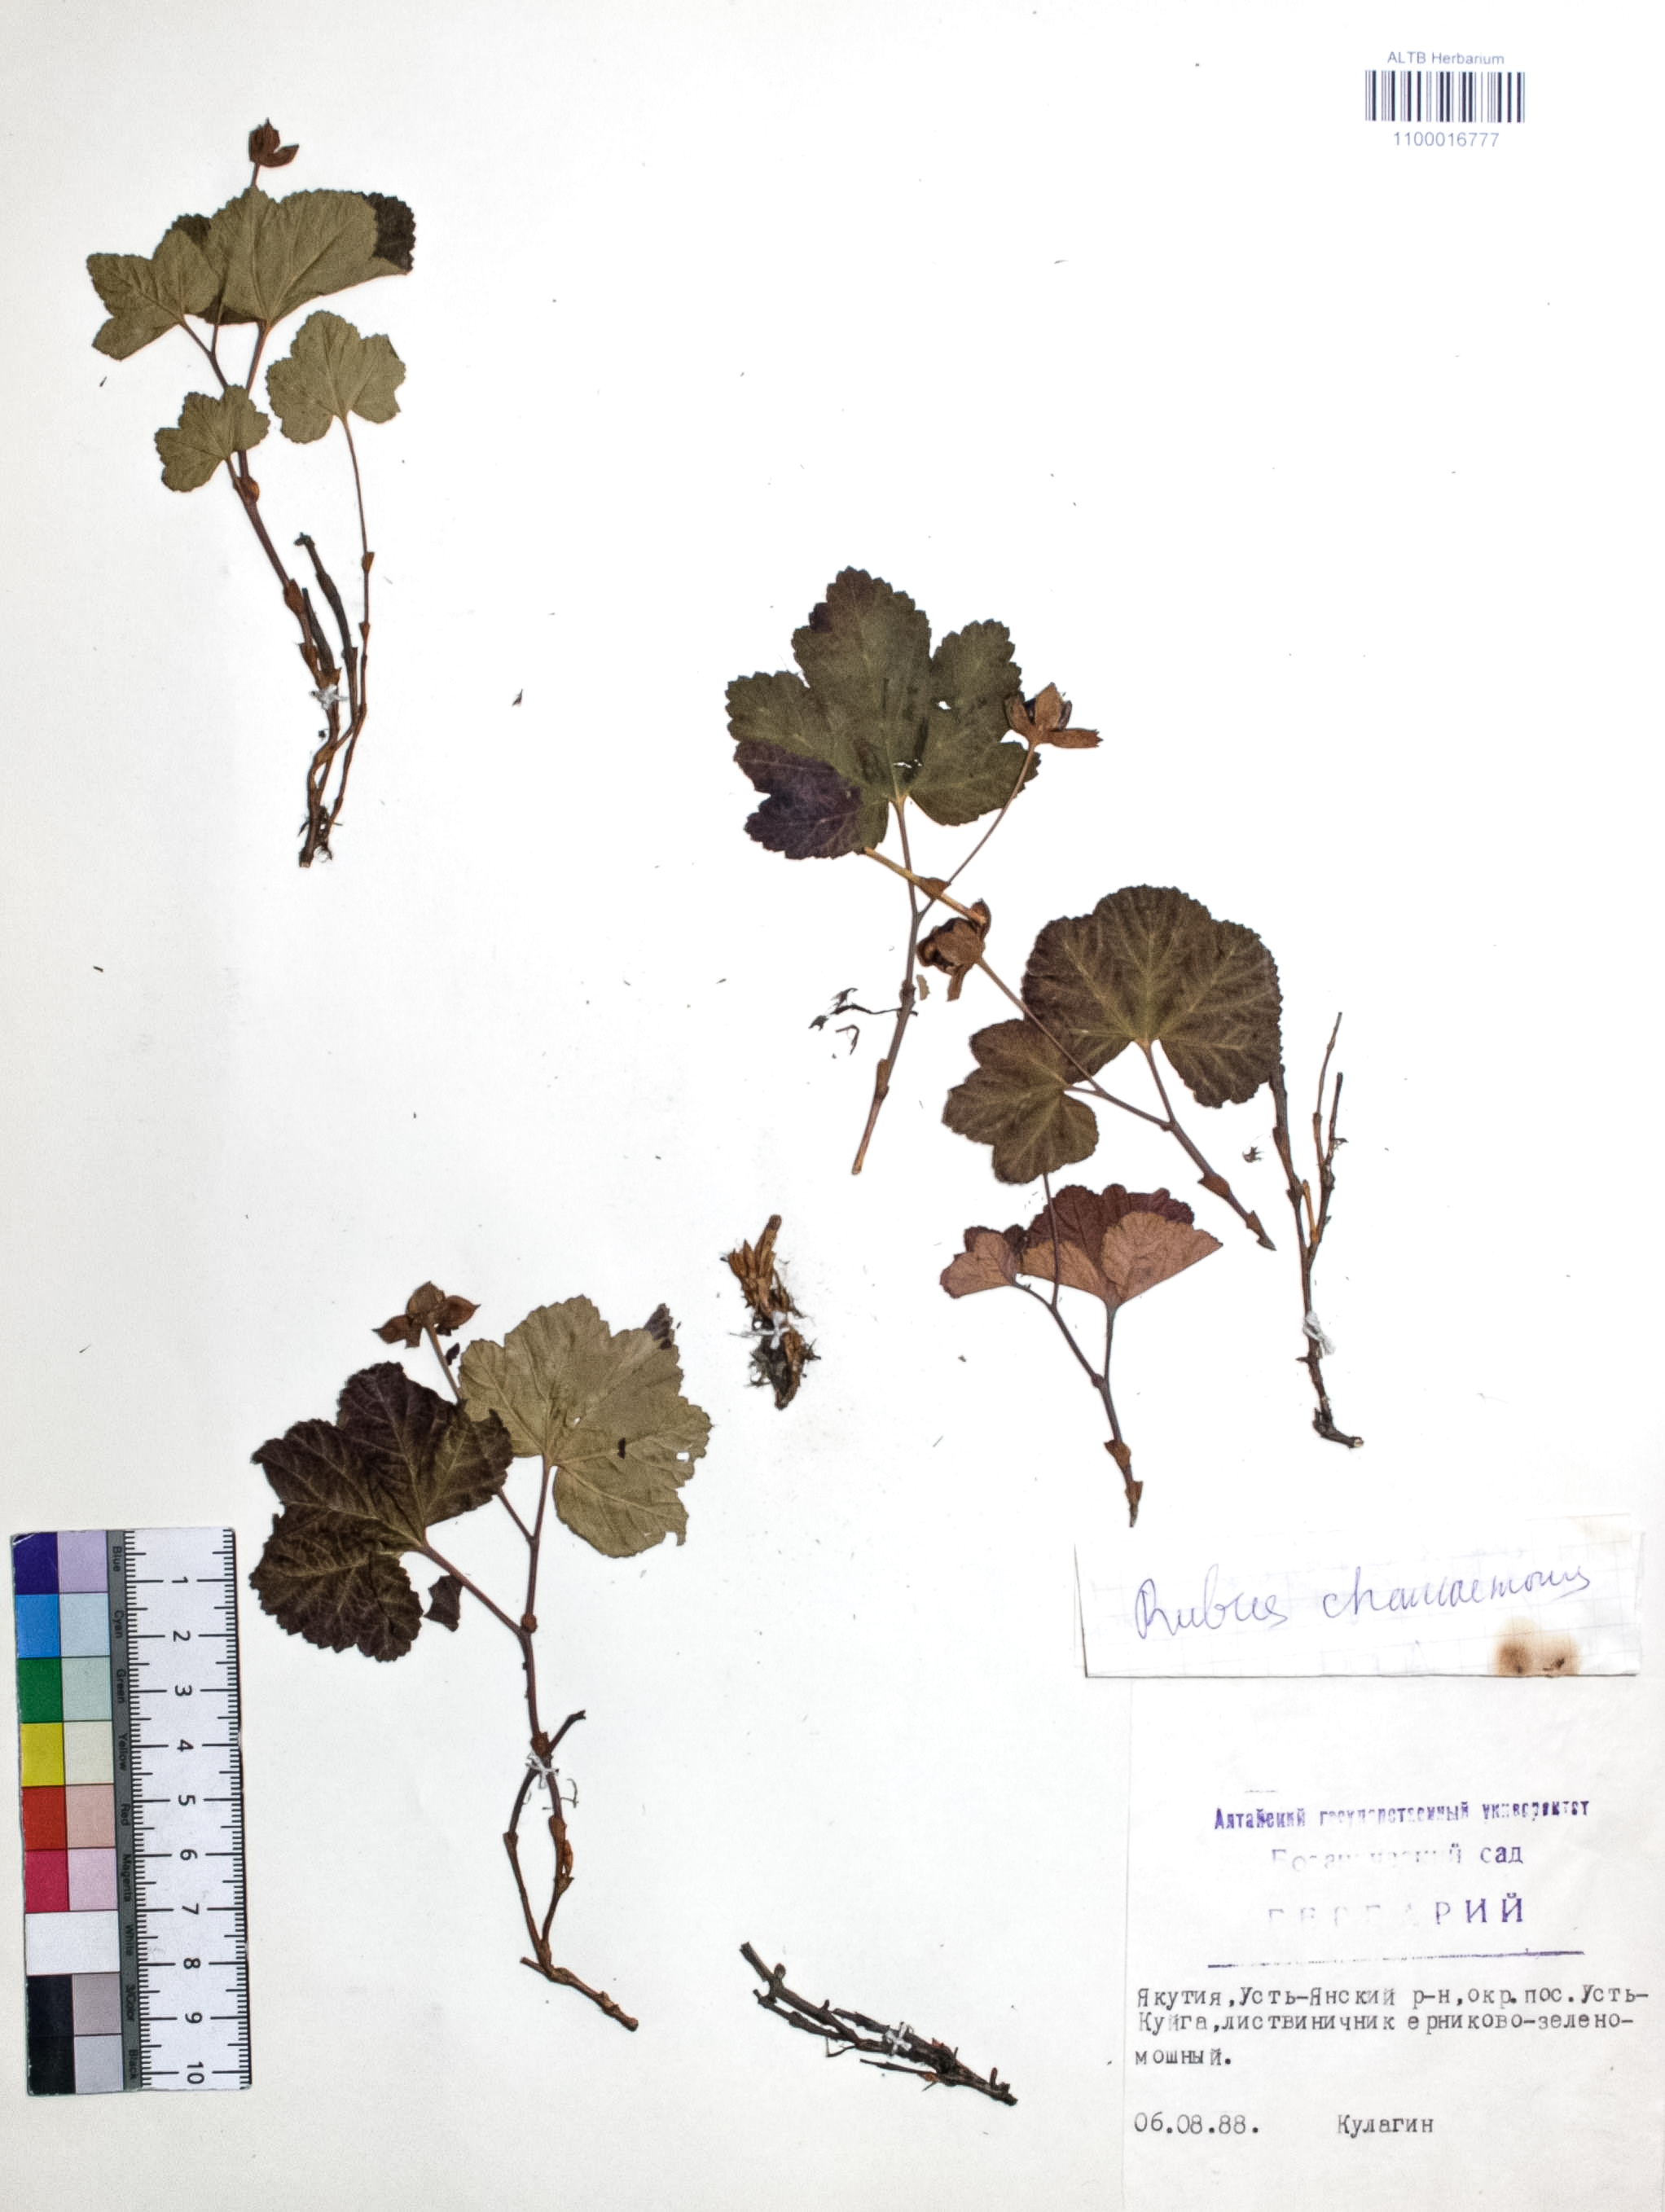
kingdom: Plantae
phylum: Tracheophyta
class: Magnoliopsida
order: Rosales
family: Rosaceae
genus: Rubus
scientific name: Rubus chamaemorus
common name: Cloudberry
